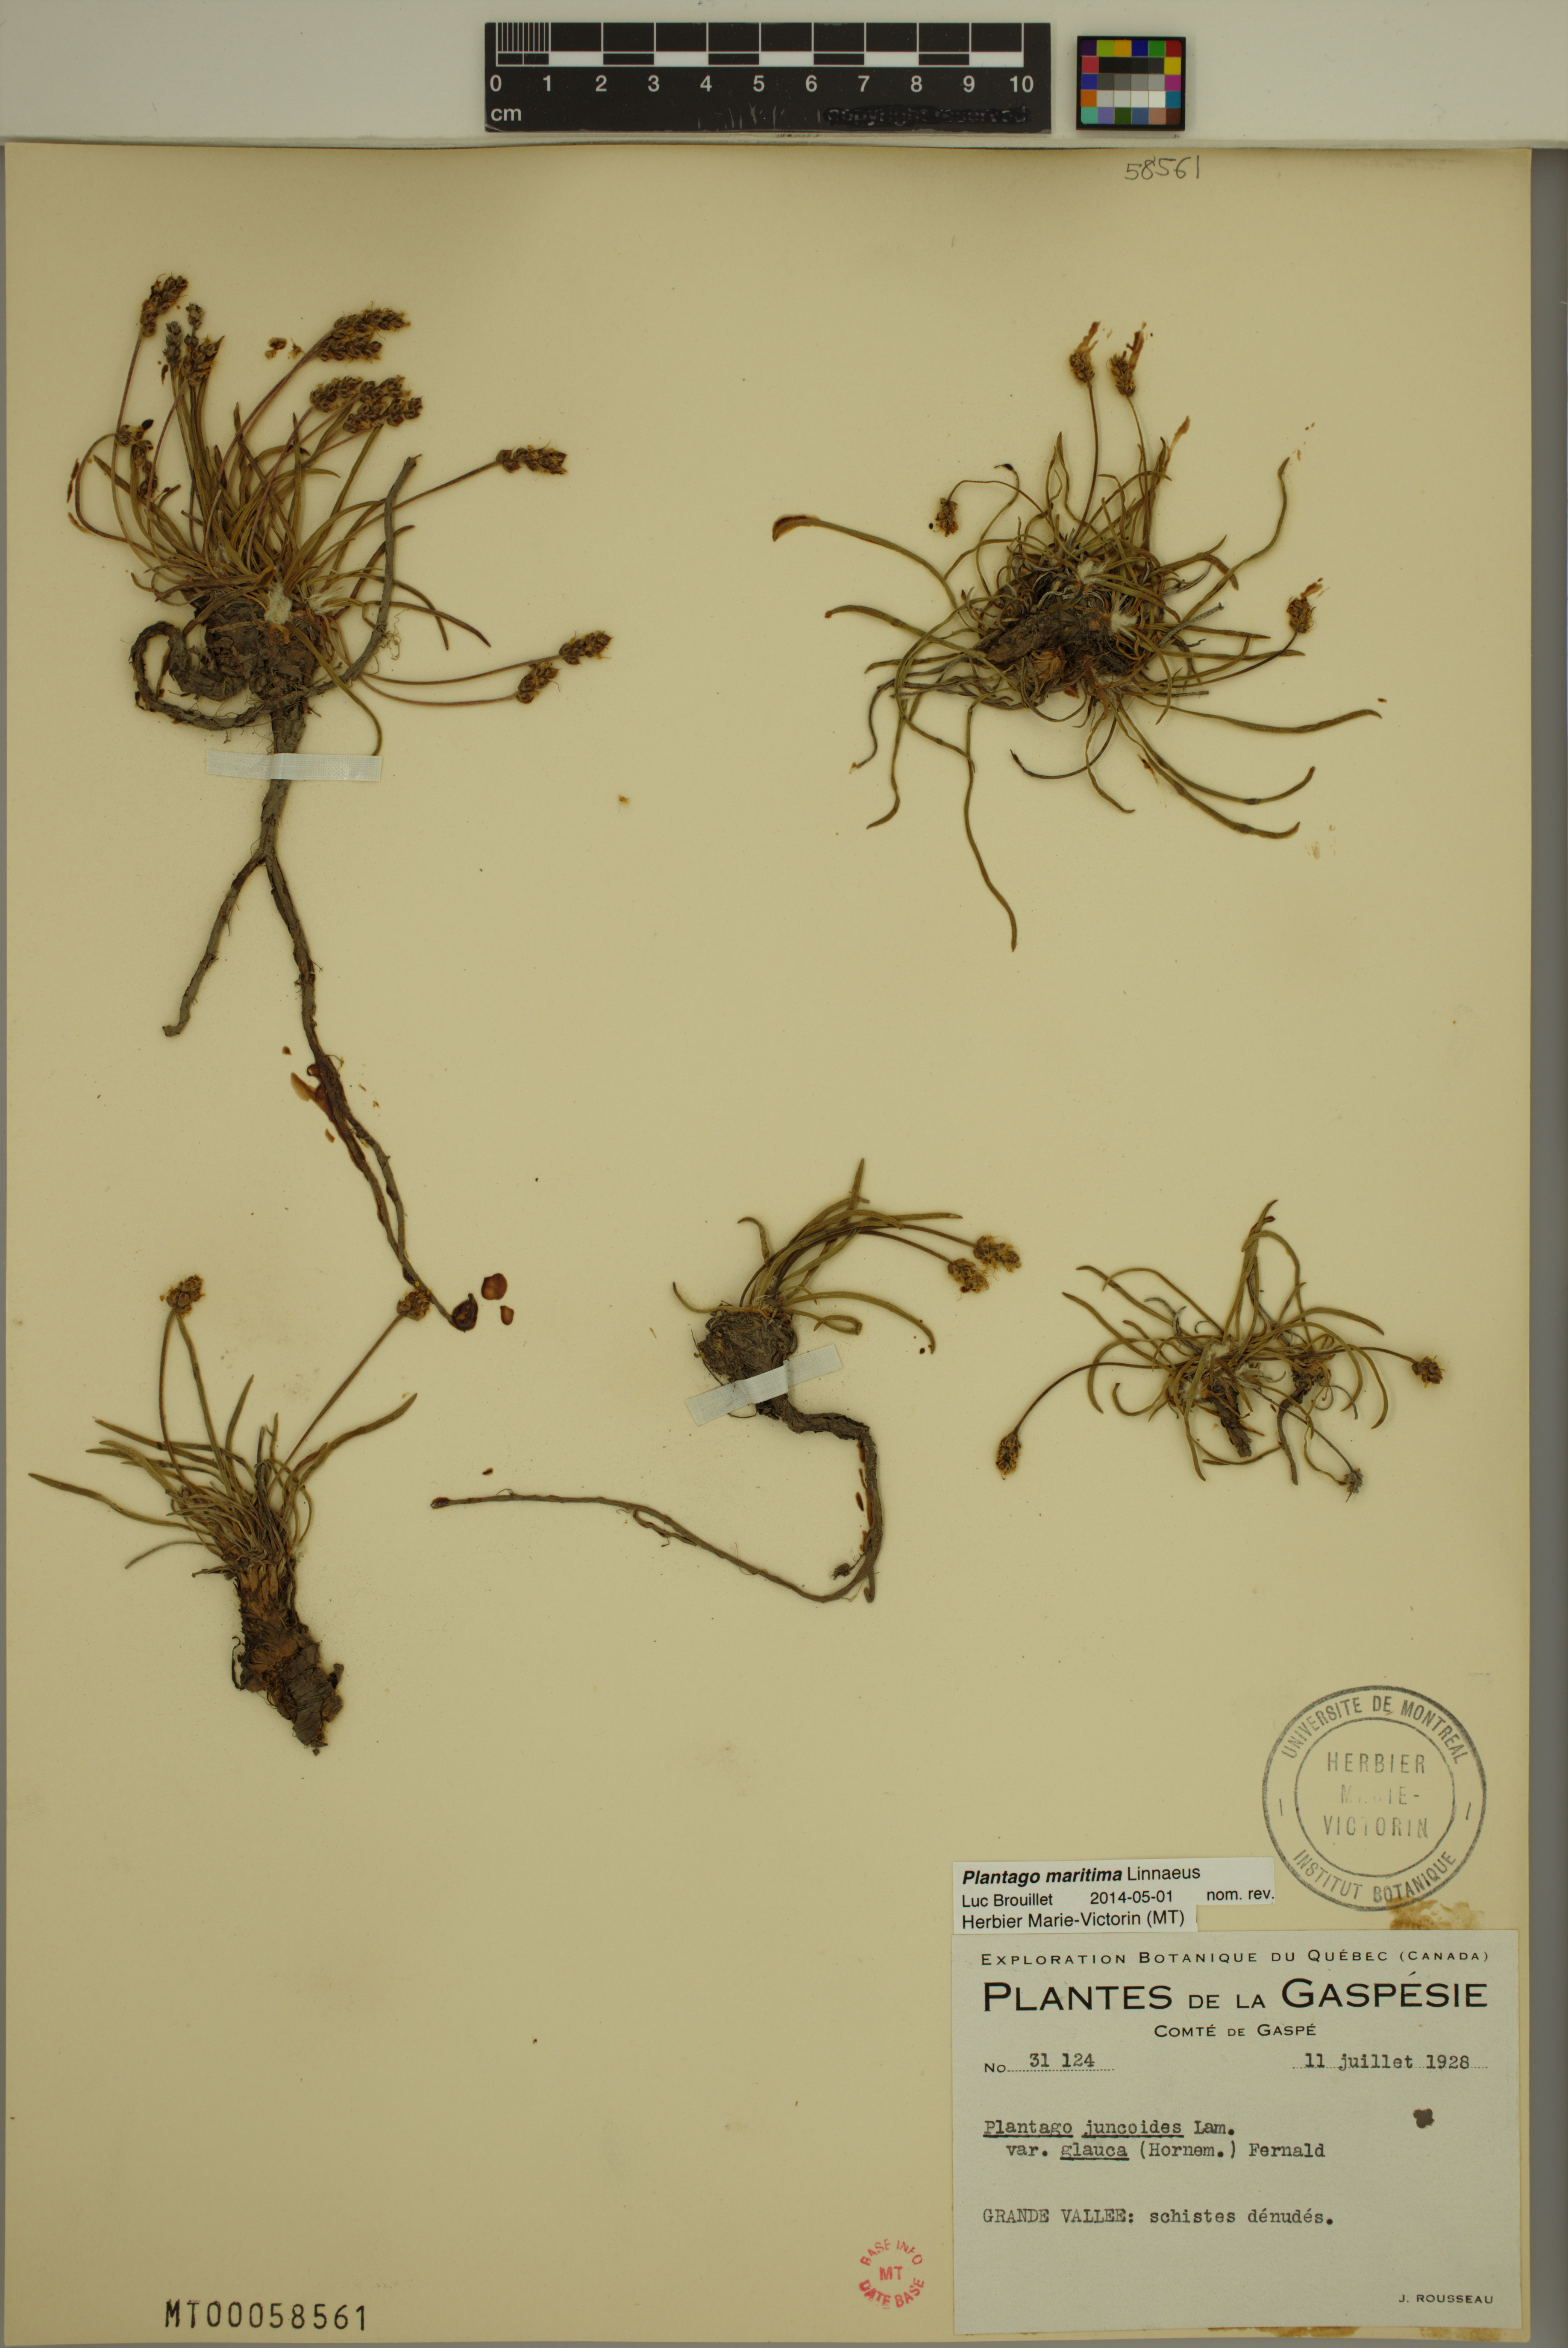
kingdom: Plantae
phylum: Tracheophyta
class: Magnoliopsida
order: Lamiales
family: Plantaginaceae
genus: Plantago
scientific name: Plantago maritima
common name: Sea plantain
